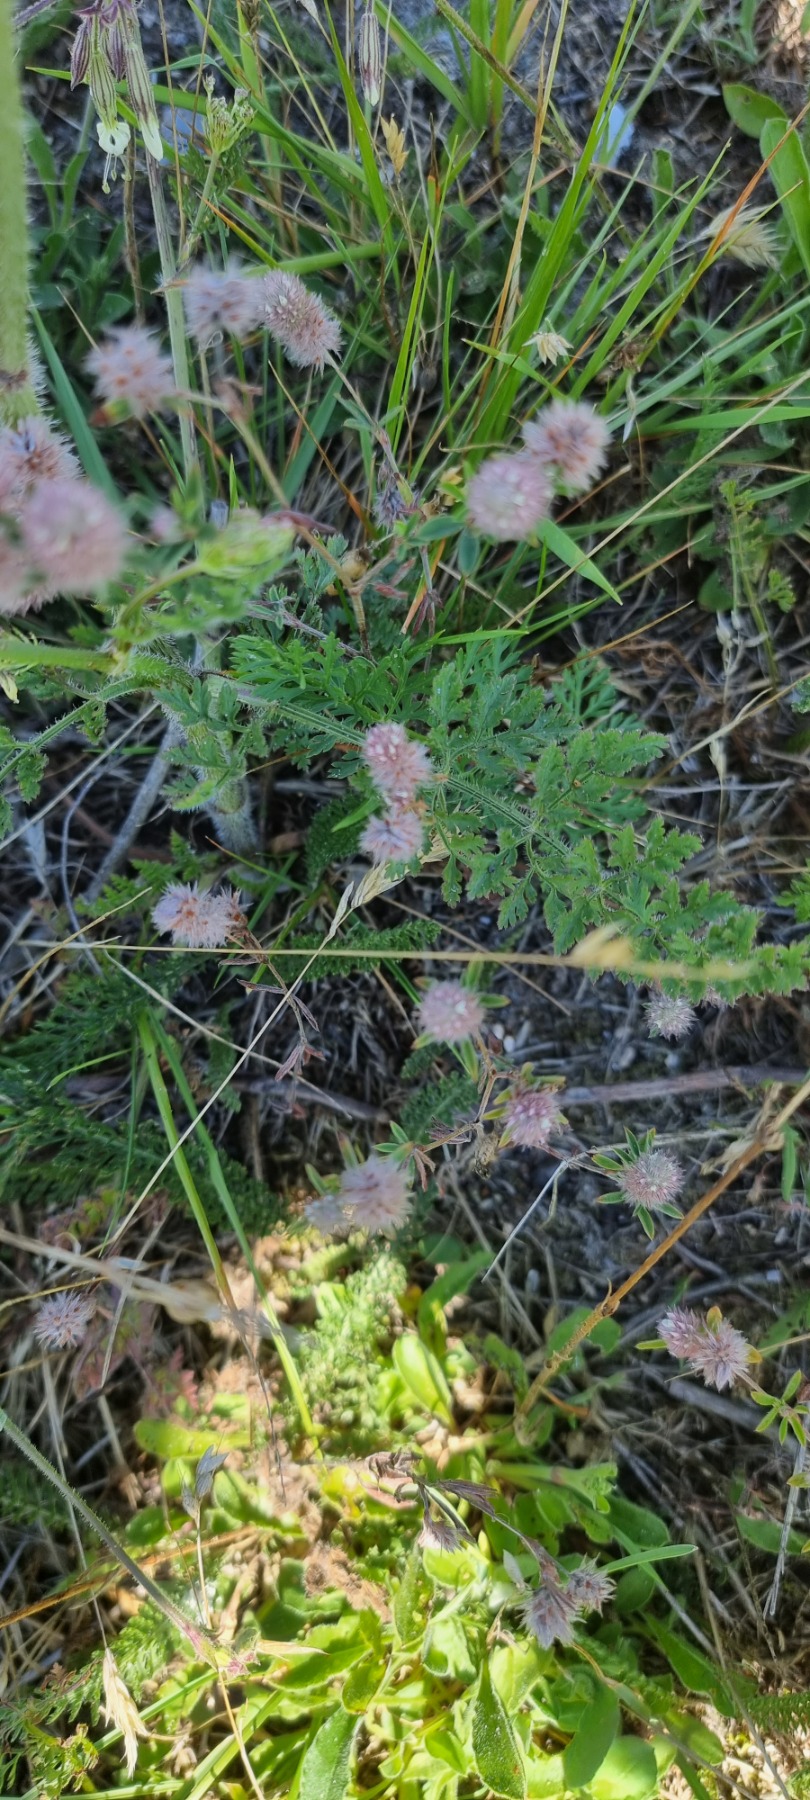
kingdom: Plantae
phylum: Tracheophyta
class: Magnoliopsida
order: Fabales
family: Fabaceae
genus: Trifolium
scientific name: Trifolium arvense
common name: Hare-kløver
